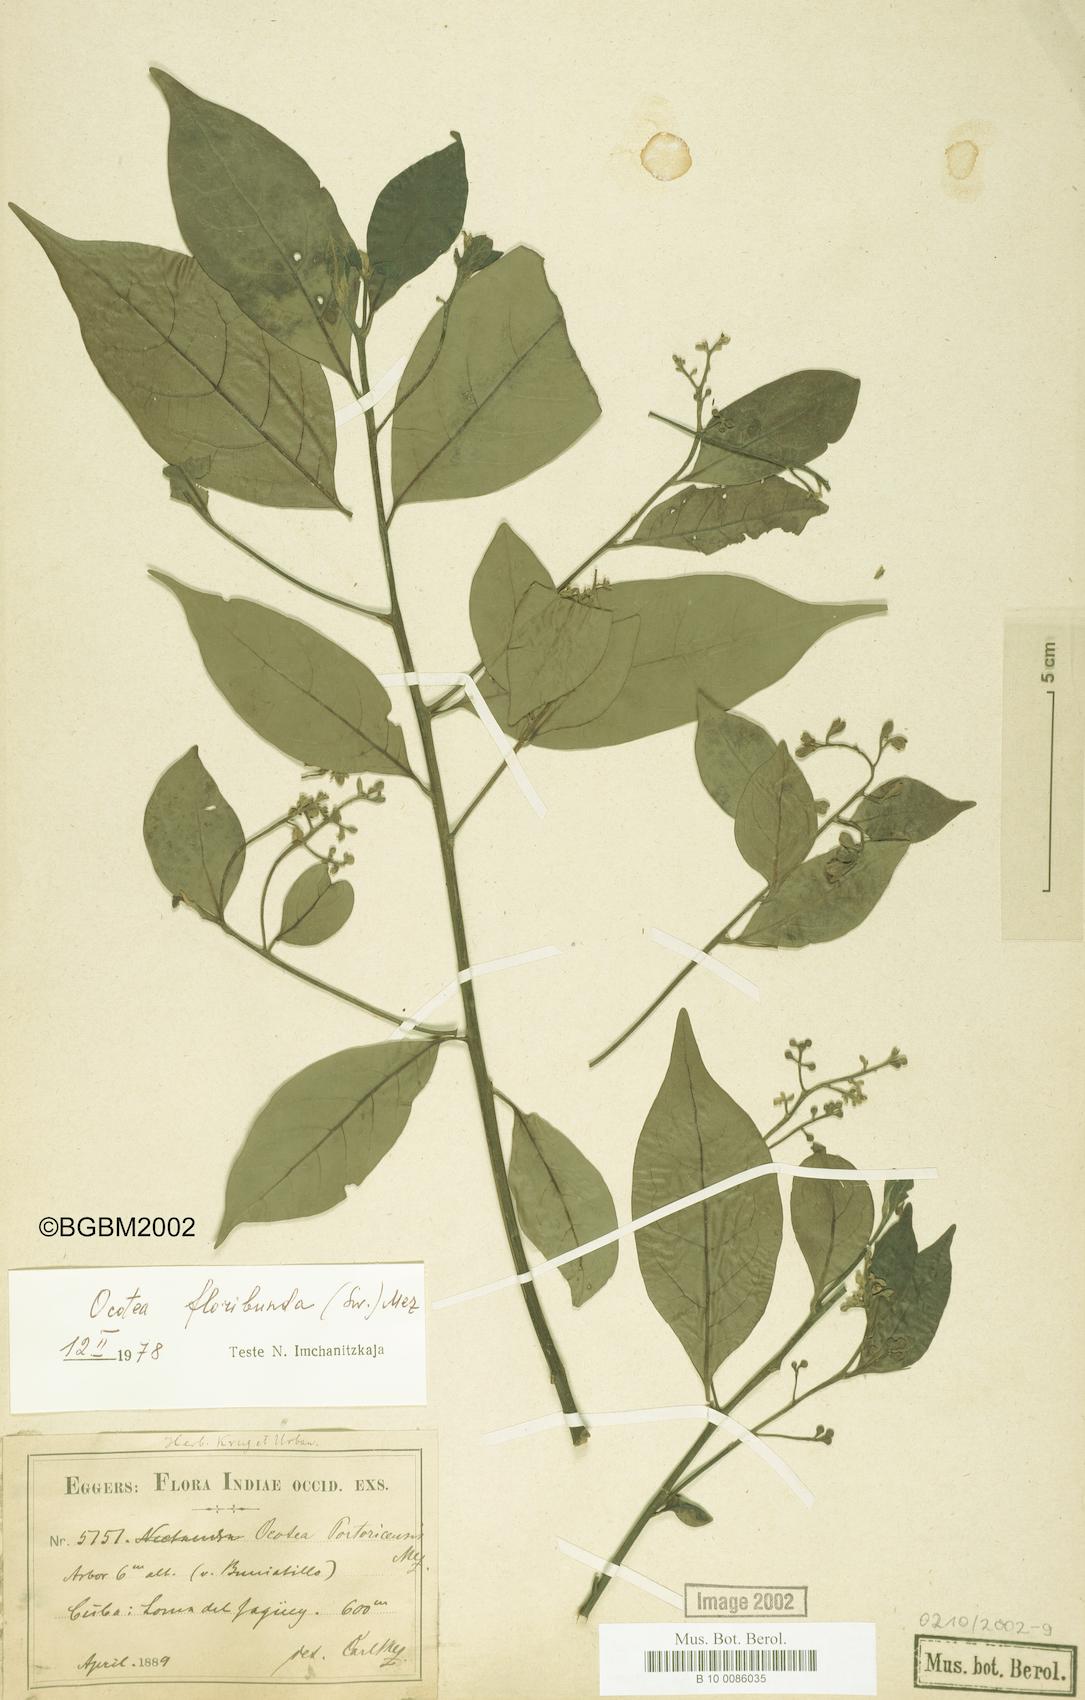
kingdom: Plantae
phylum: Tracheophyta
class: Magnoliopsida
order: Laurales
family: Lauraceae
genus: Ocotea
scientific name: Ocotea floribunda
